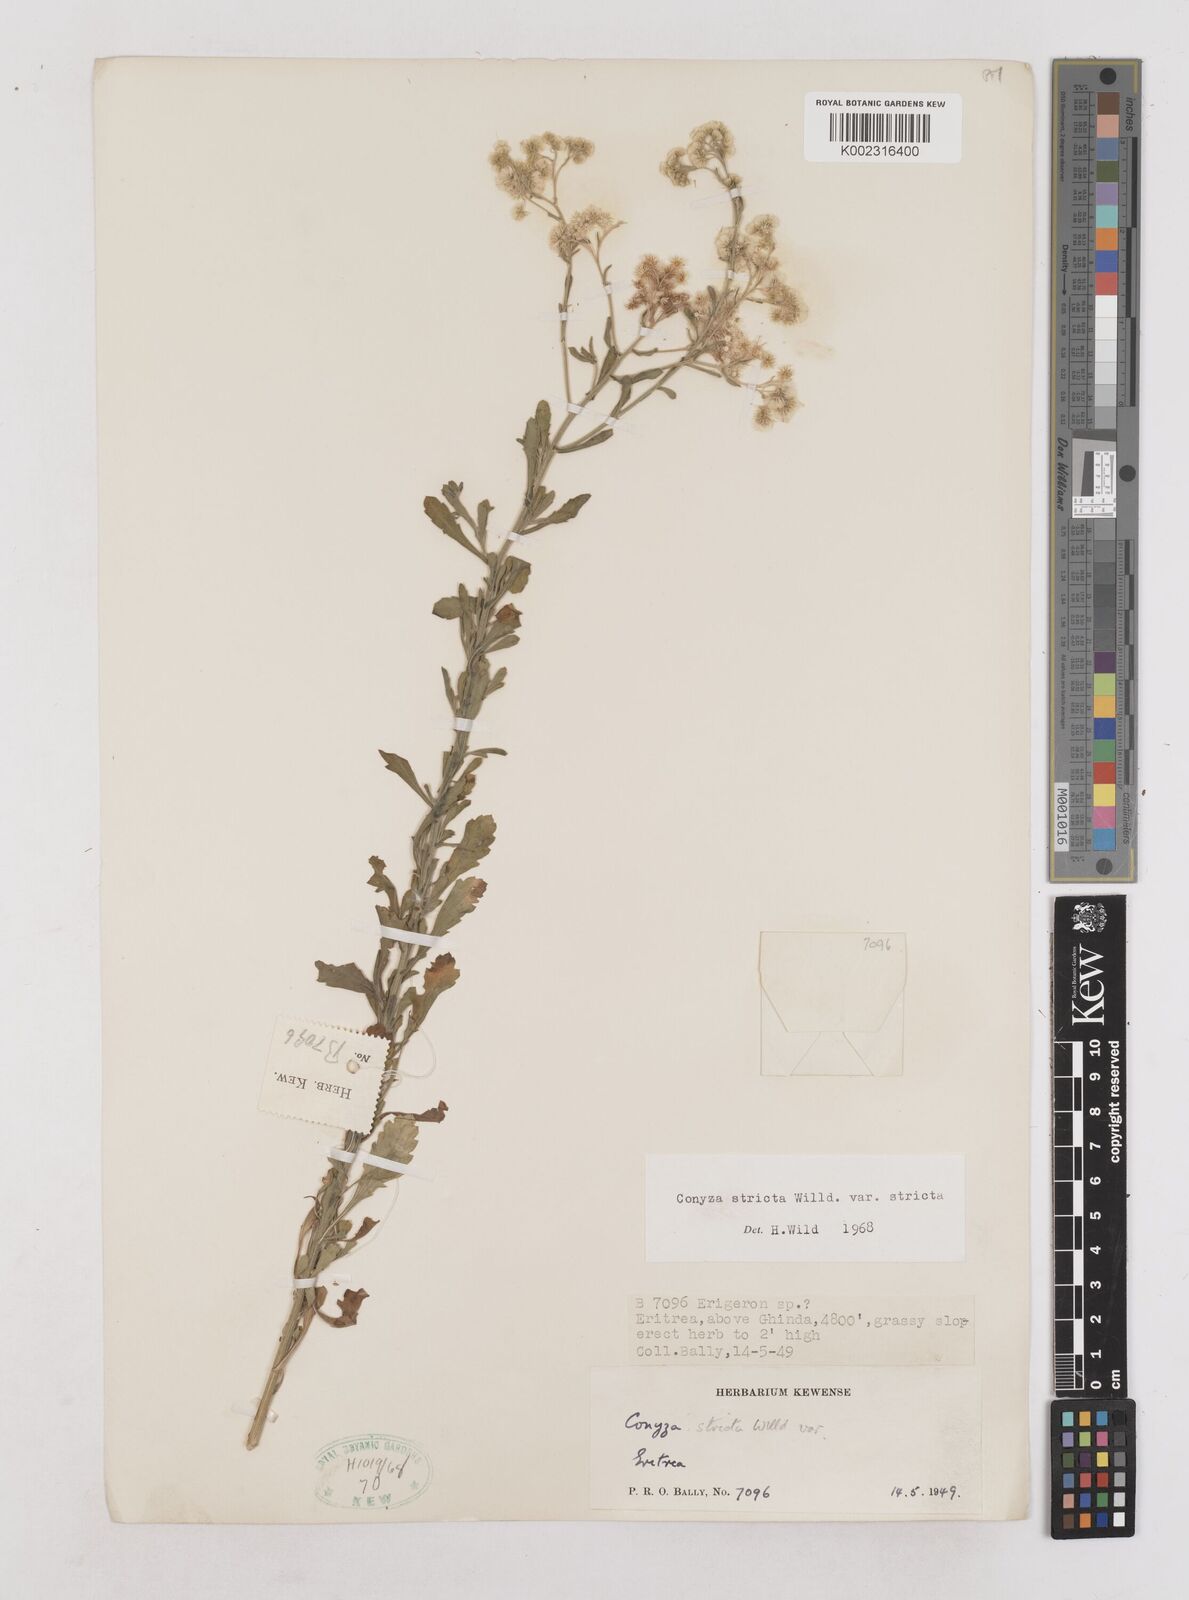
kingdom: Plantae
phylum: Tracheophyta
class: Magnoliopsida
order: Asterales
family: Asteraceae
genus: Nidorella
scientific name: Nidorella triloba
